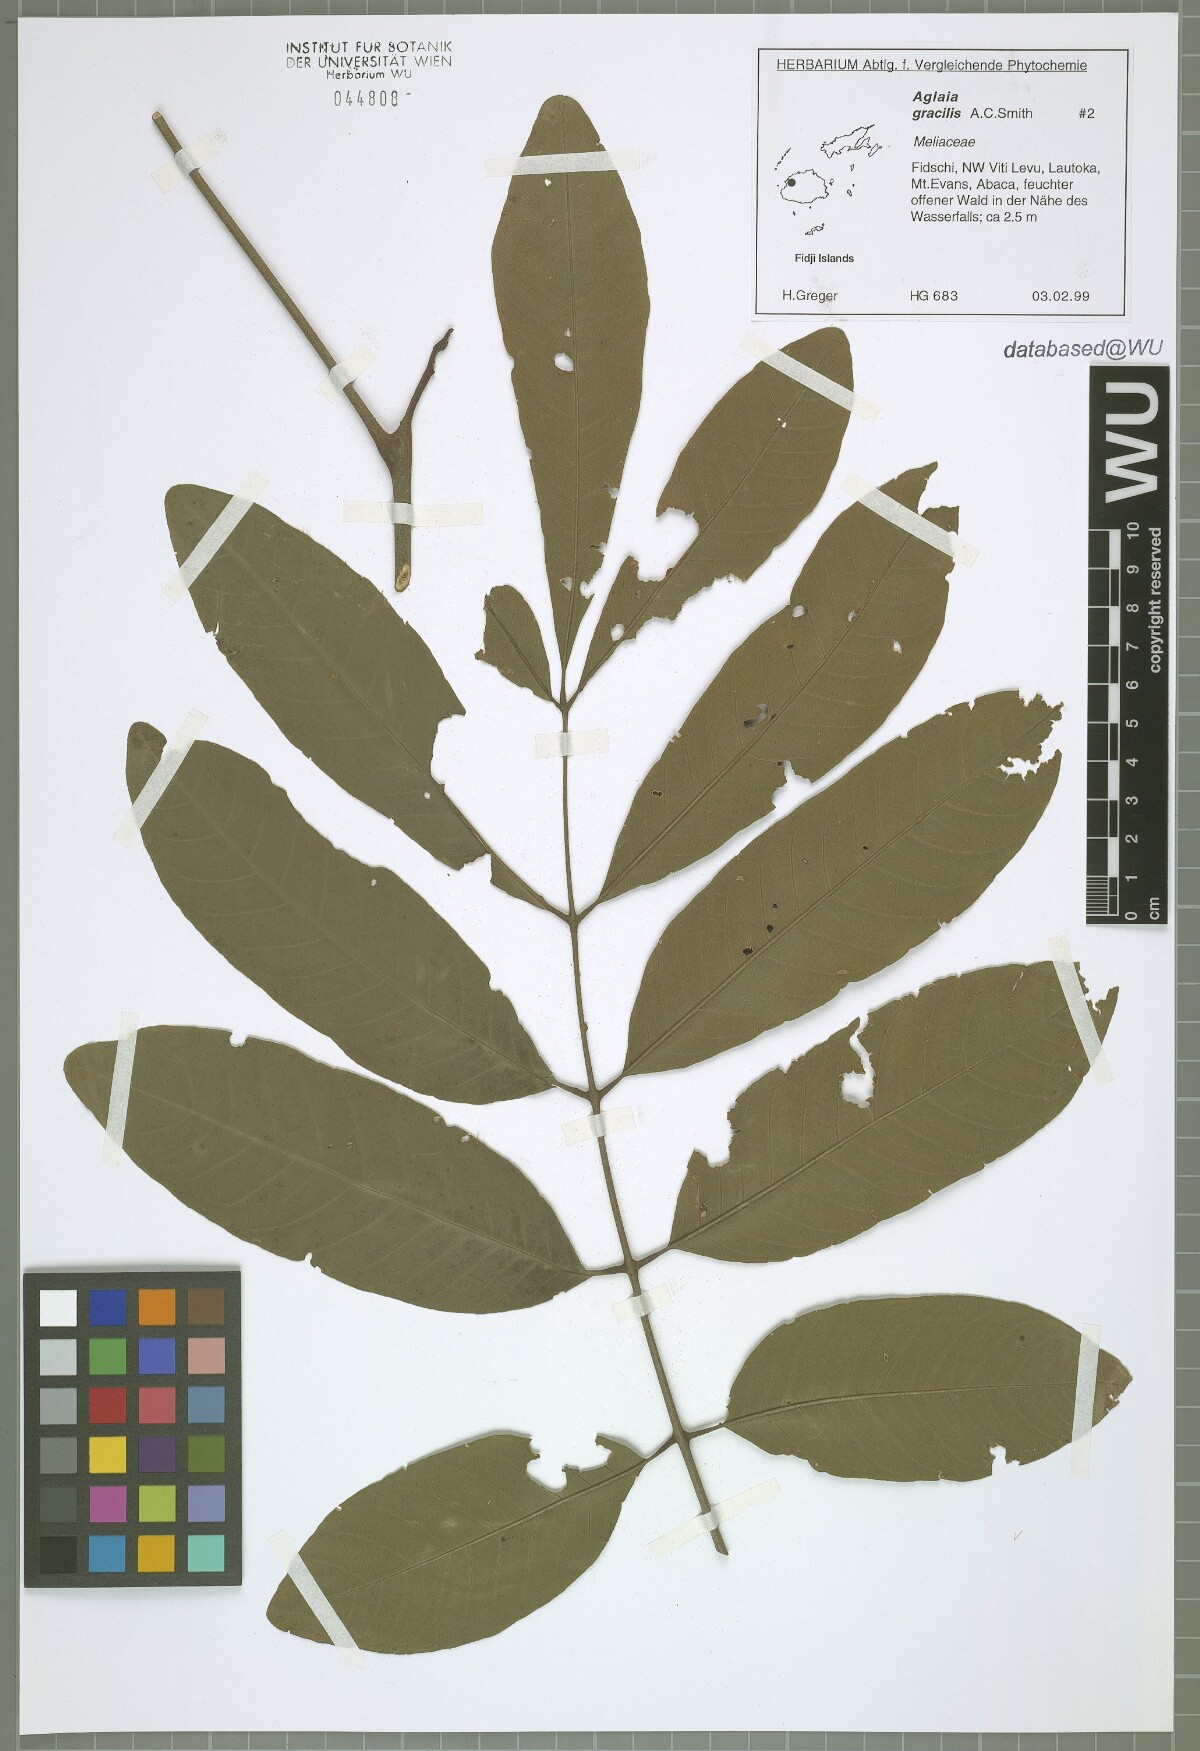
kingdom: Plantae
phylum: Tracheophyta
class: Magnoliopsida
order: Sapindales
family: Meliaceae
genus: Aglaia
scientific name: Aglaia gracilis
